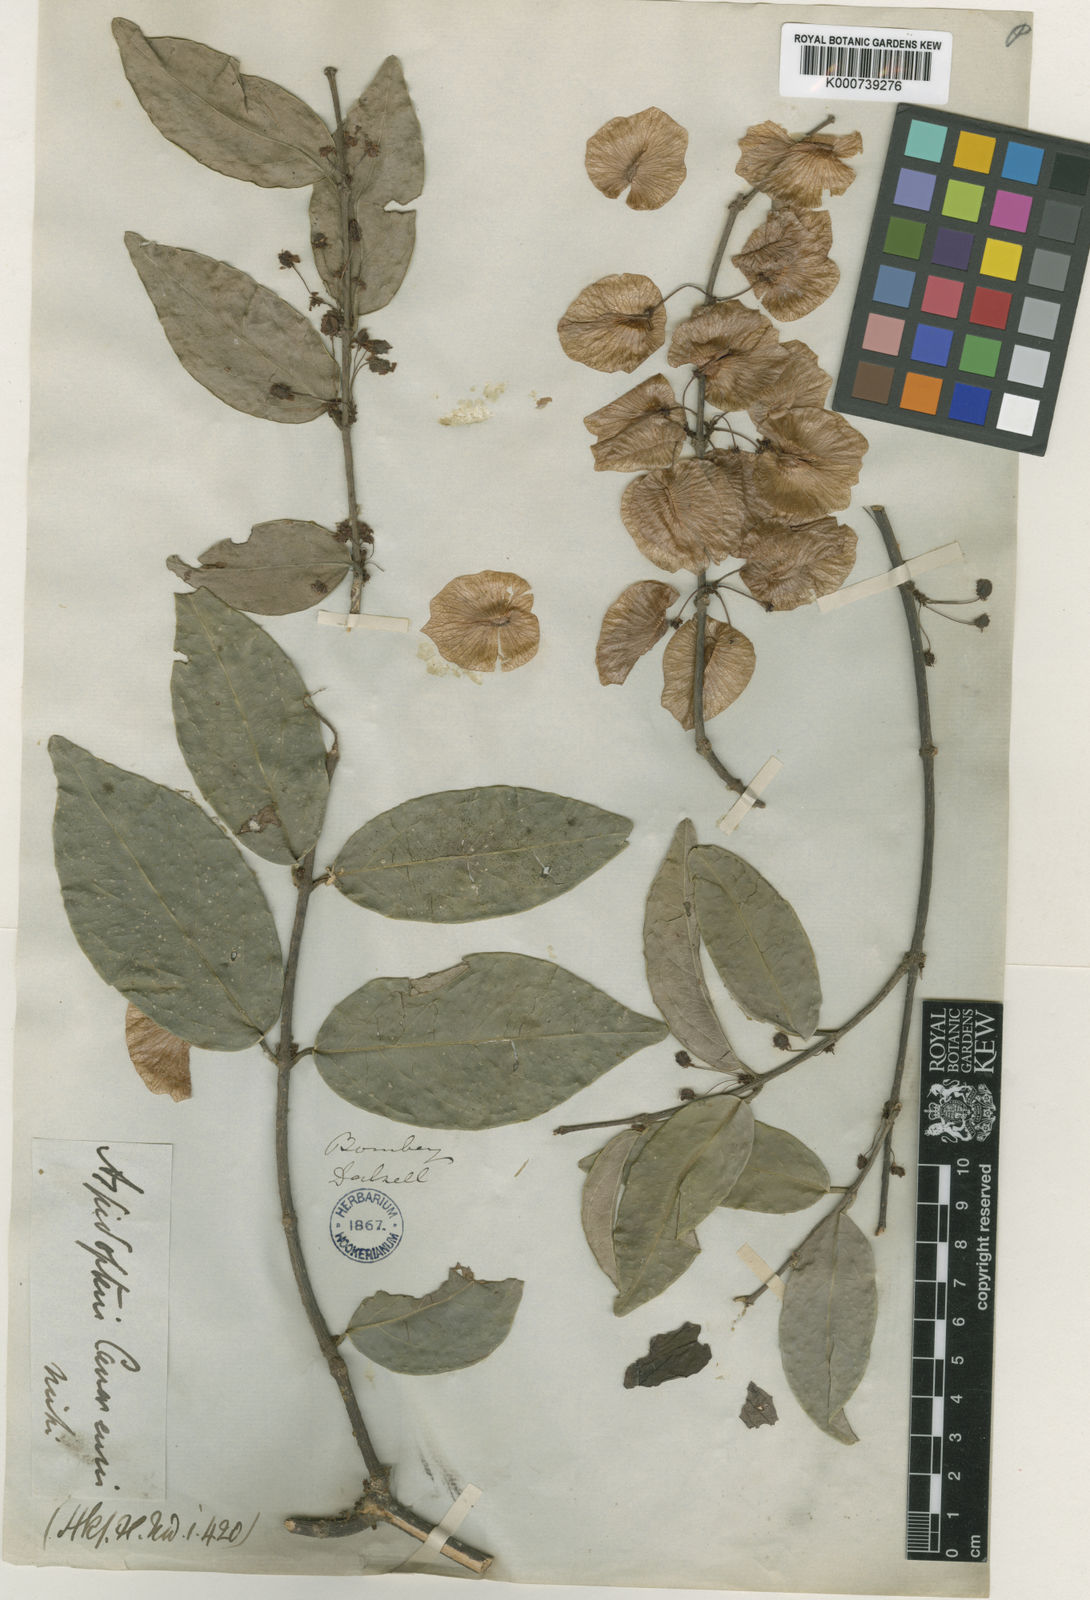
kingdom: Plantae
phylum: Tracheophyta
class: Magnoliopsida
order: Malpighiales
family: Malpighiaceae
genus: Aspidopterys
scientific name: Aspidopterys canarensis
